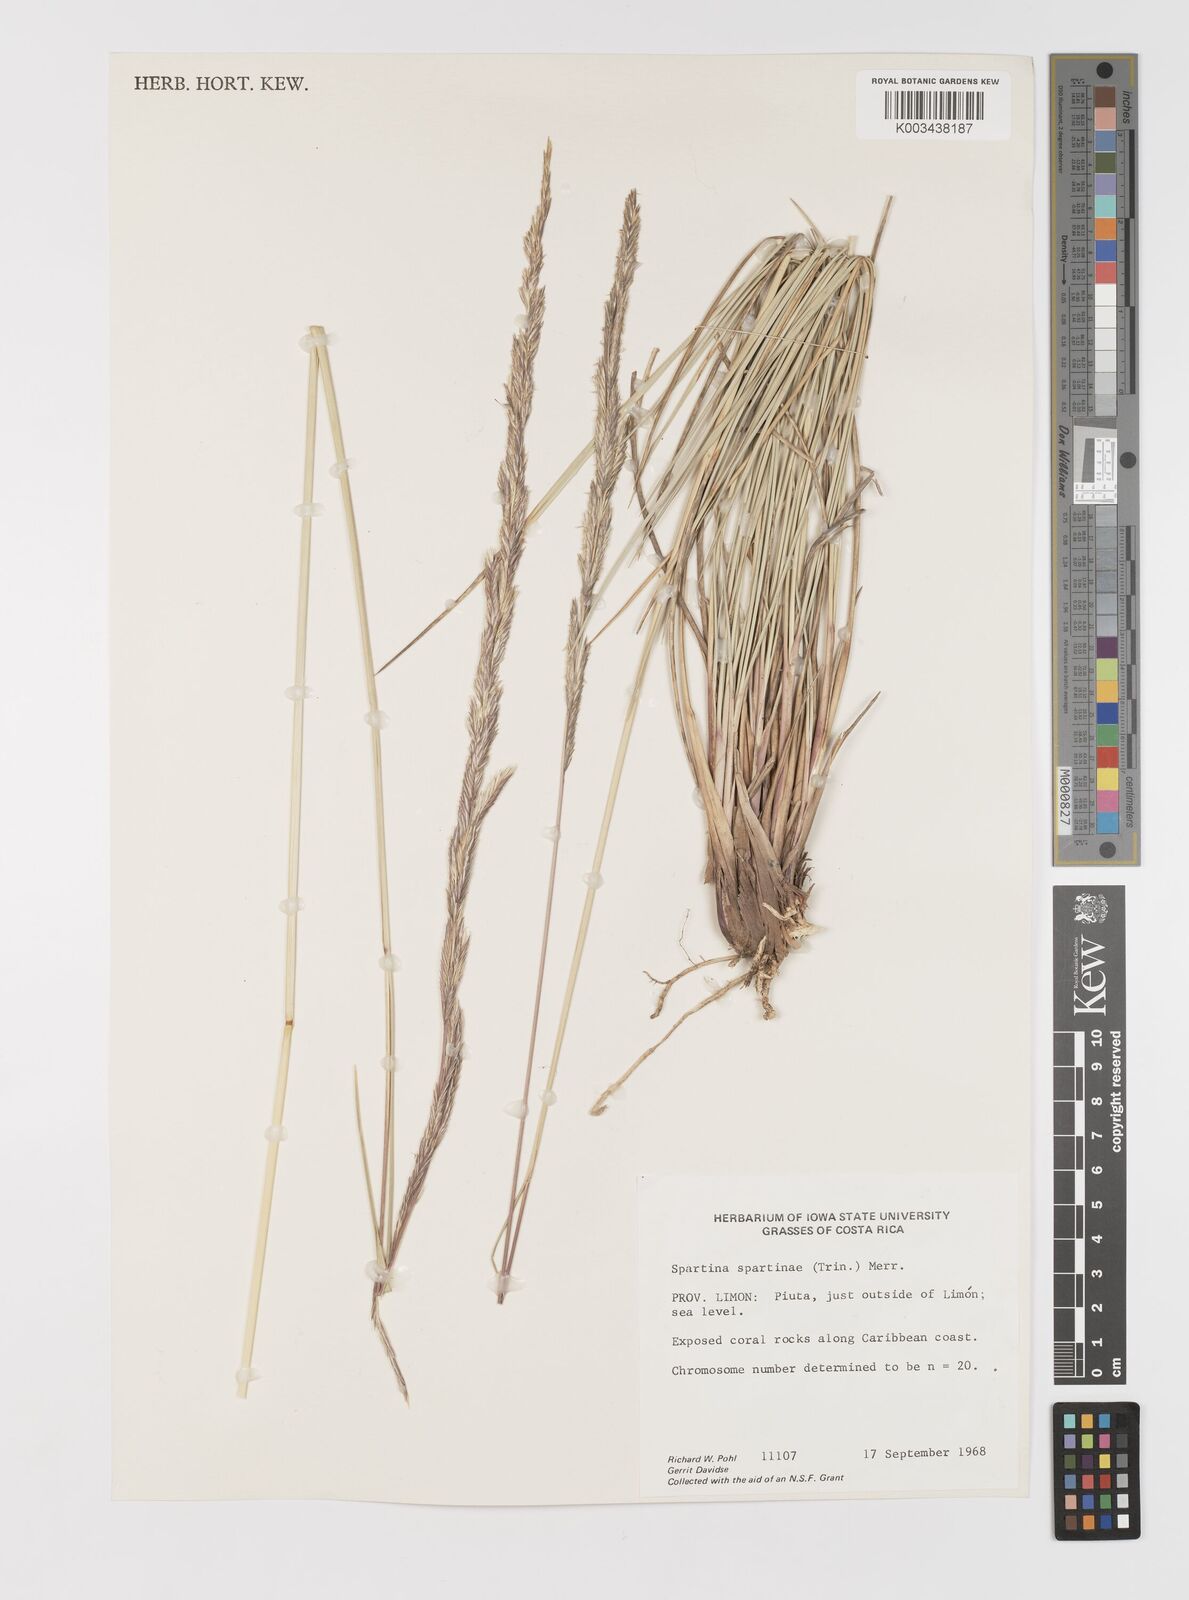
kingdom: Plantae
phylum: Tracheophyta
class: Liliopsida
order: Poales
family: Poaceae
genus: Sporobolus
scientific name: Sporobolus spartinae
